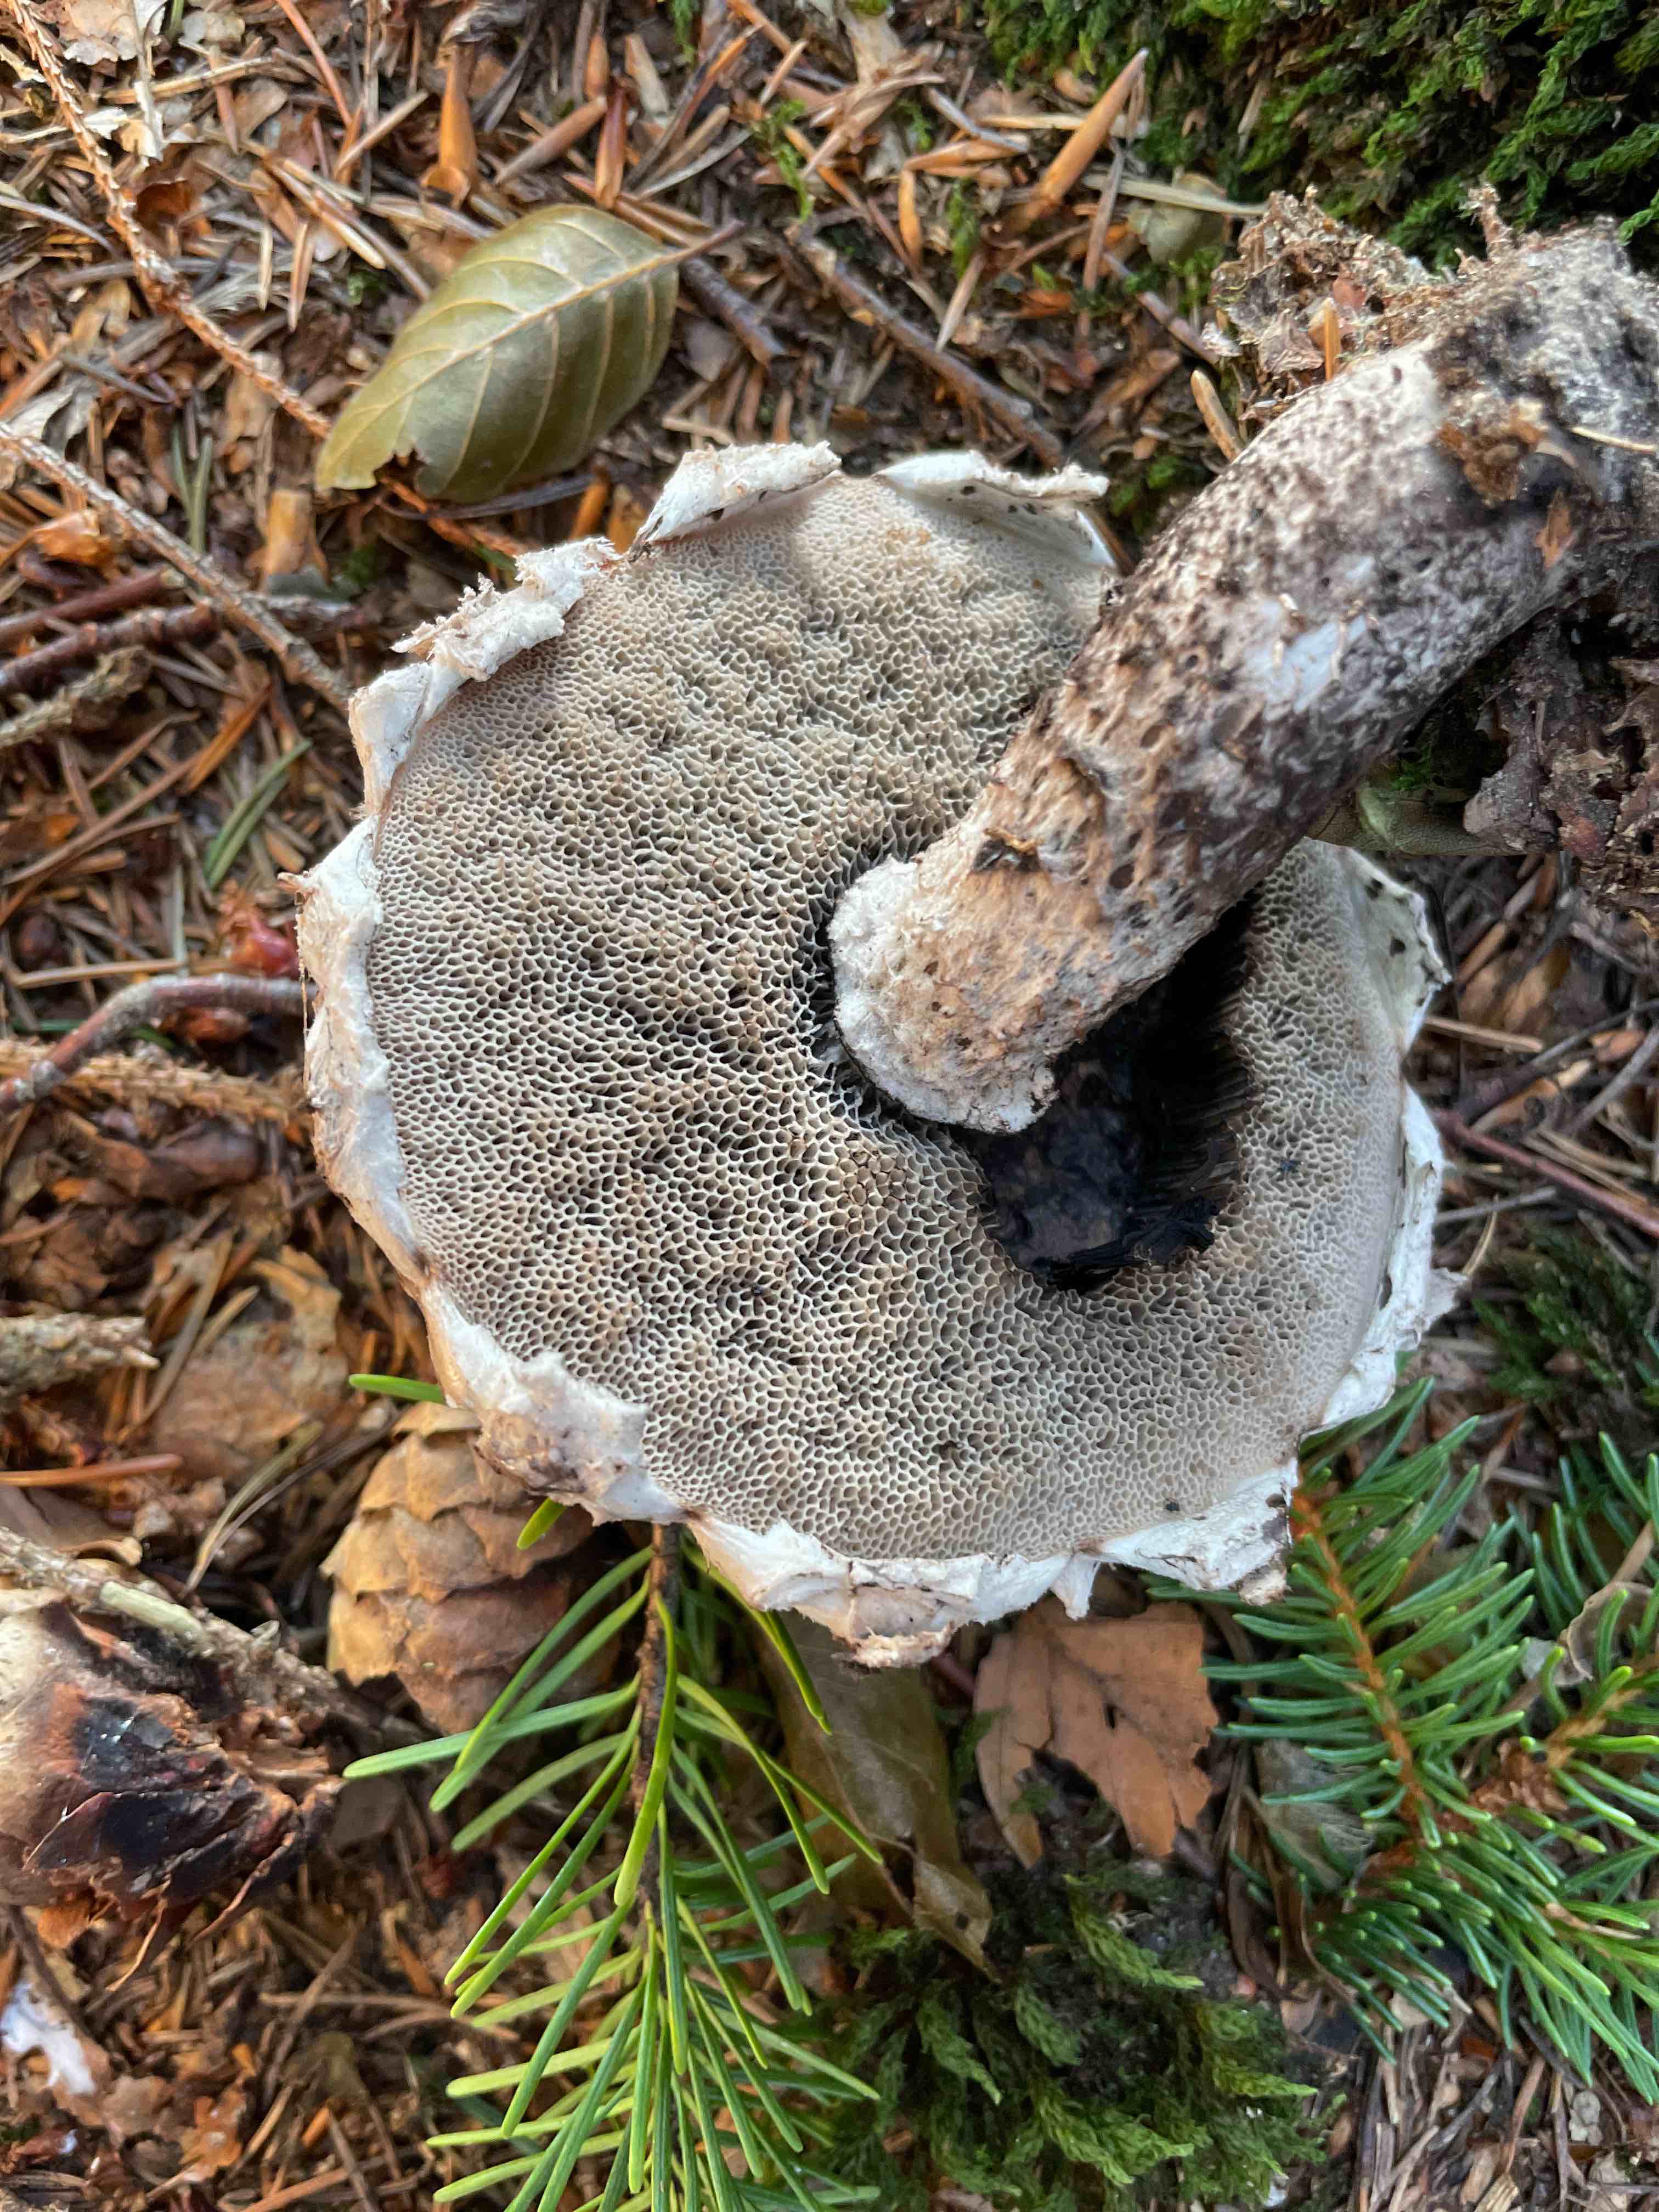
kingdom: Fungi
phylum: Basidiomycota
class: Agaricomycetes
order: Boletales
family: Boletaceae
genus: Strobilomyces
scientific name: Strobilomyces strobilaceus
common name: koglerørhat
